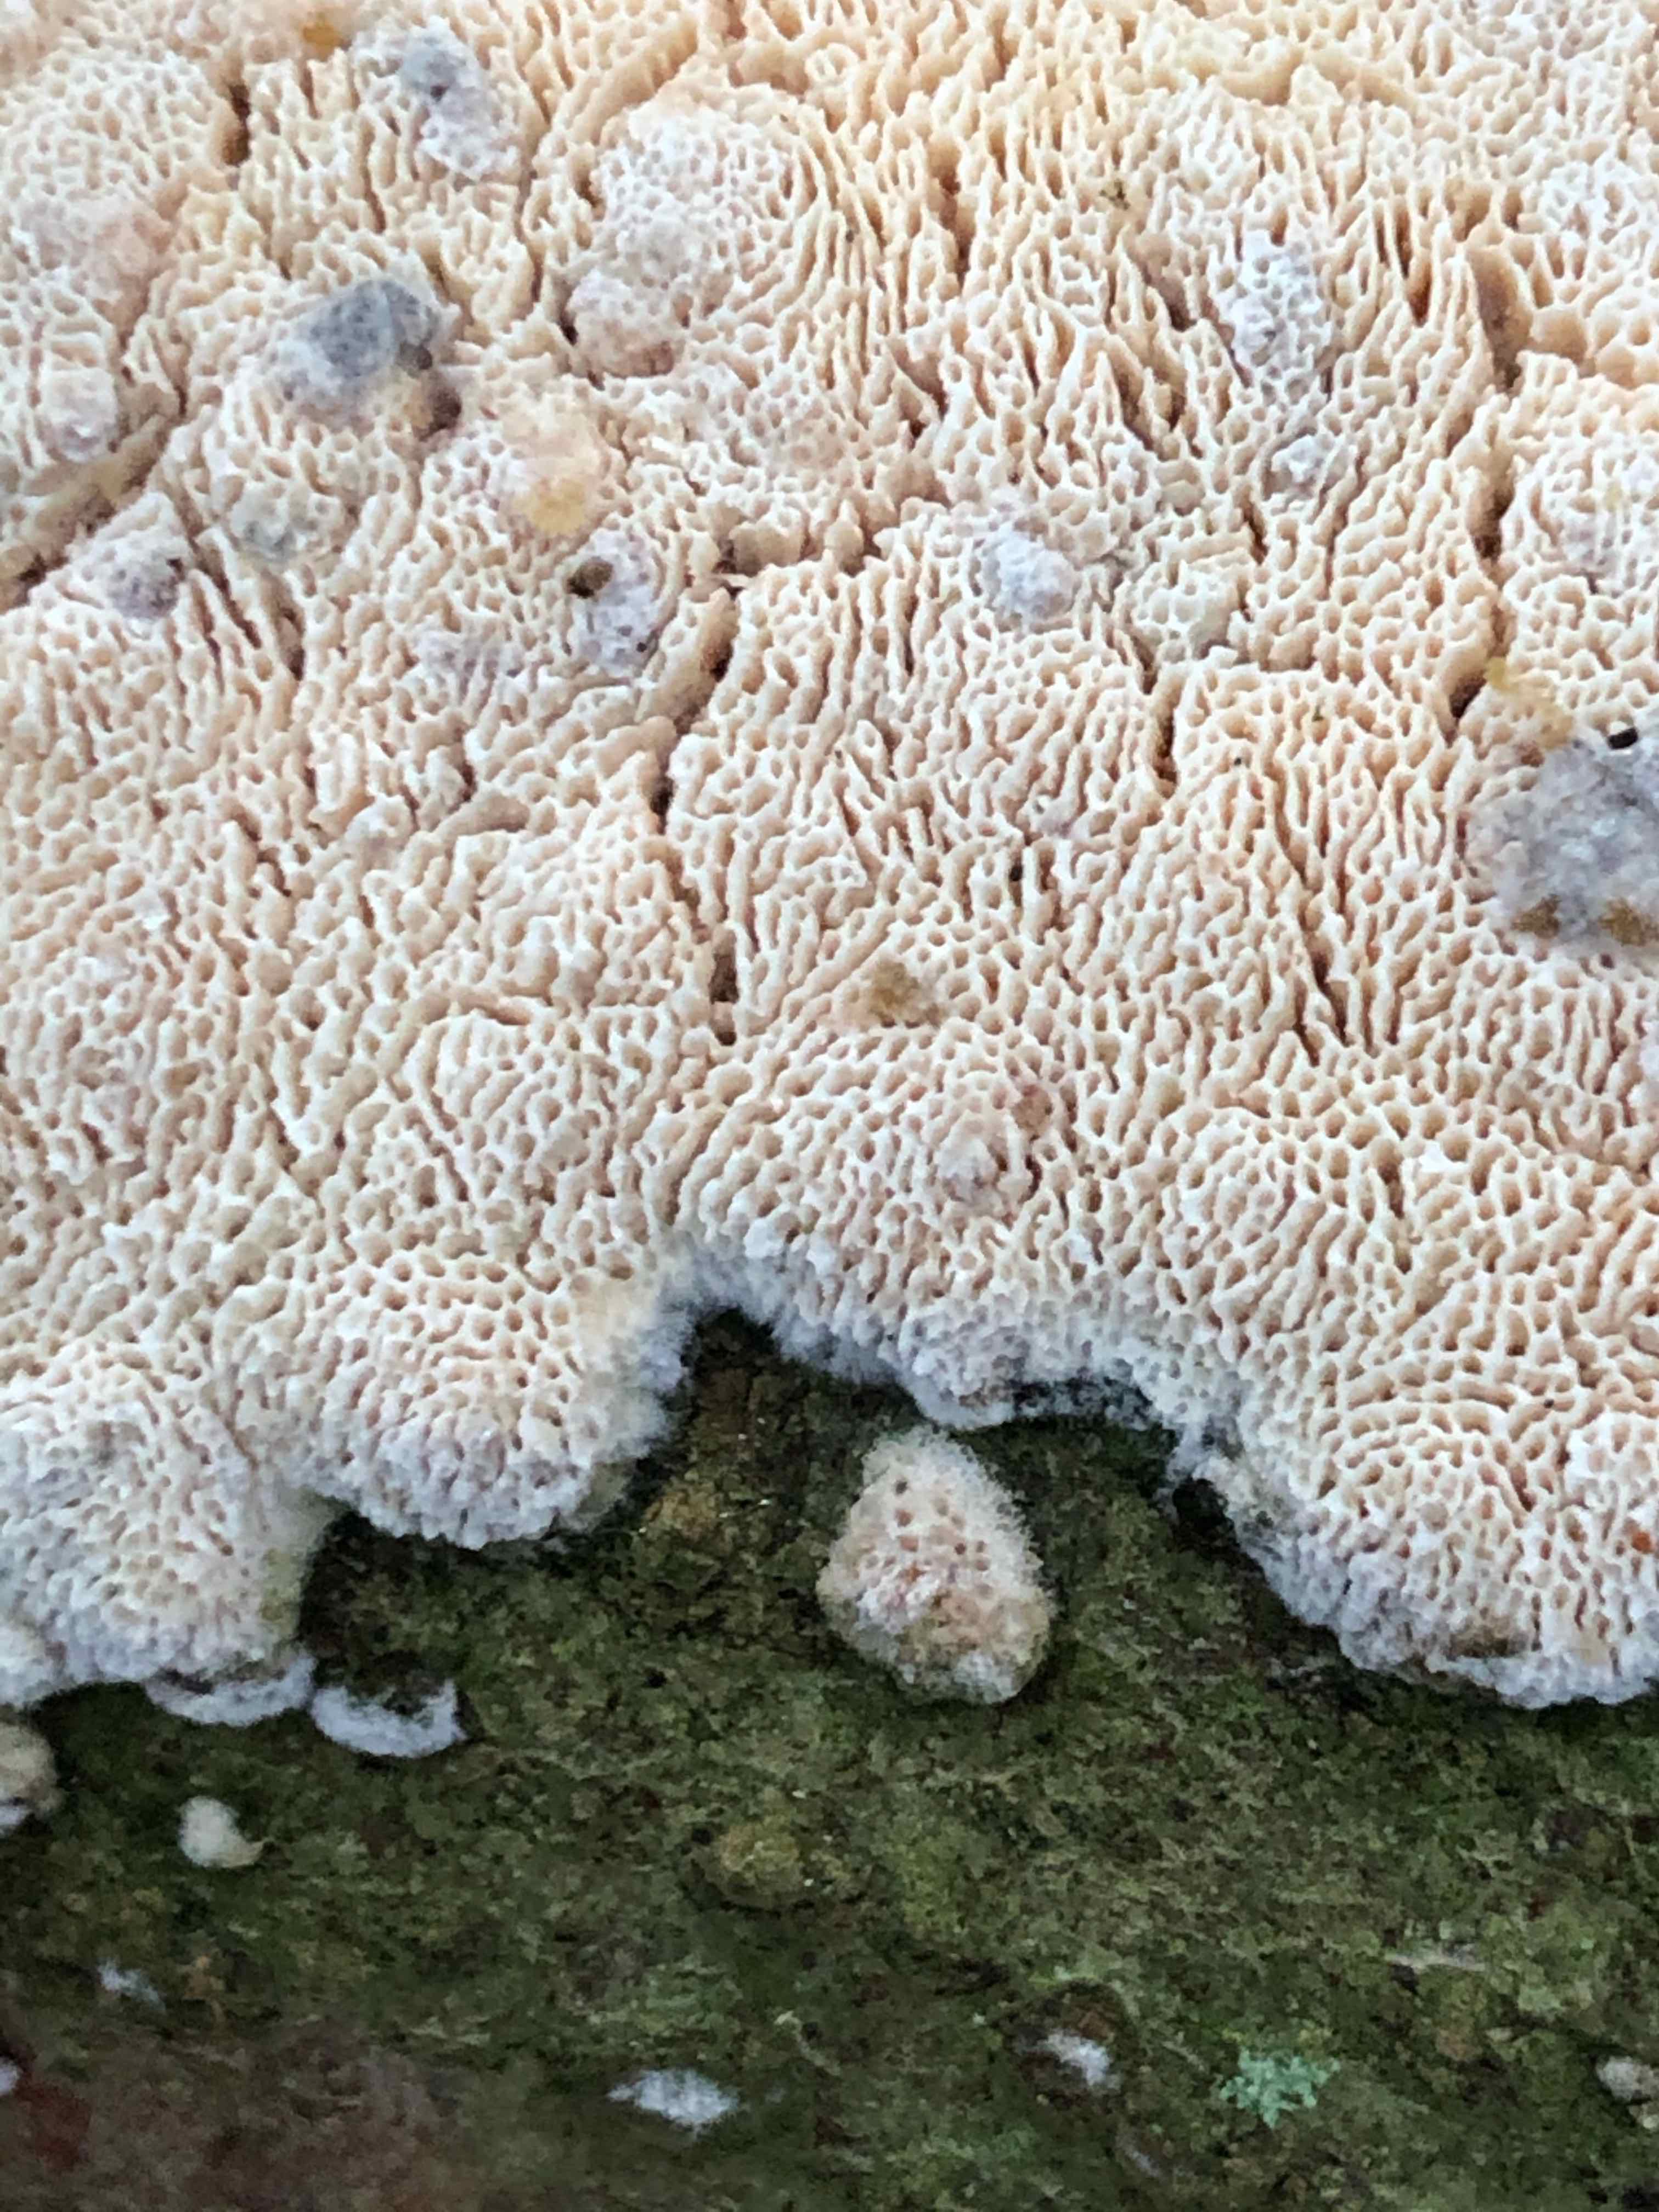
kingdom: Fungi
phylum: Basidiomycota
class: Agaricomycetes
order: Hymenochaetales
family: Schizoporaceae
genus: Xylodon
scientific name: Xylodon subtropicus
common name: labyrint-tandsvamp
